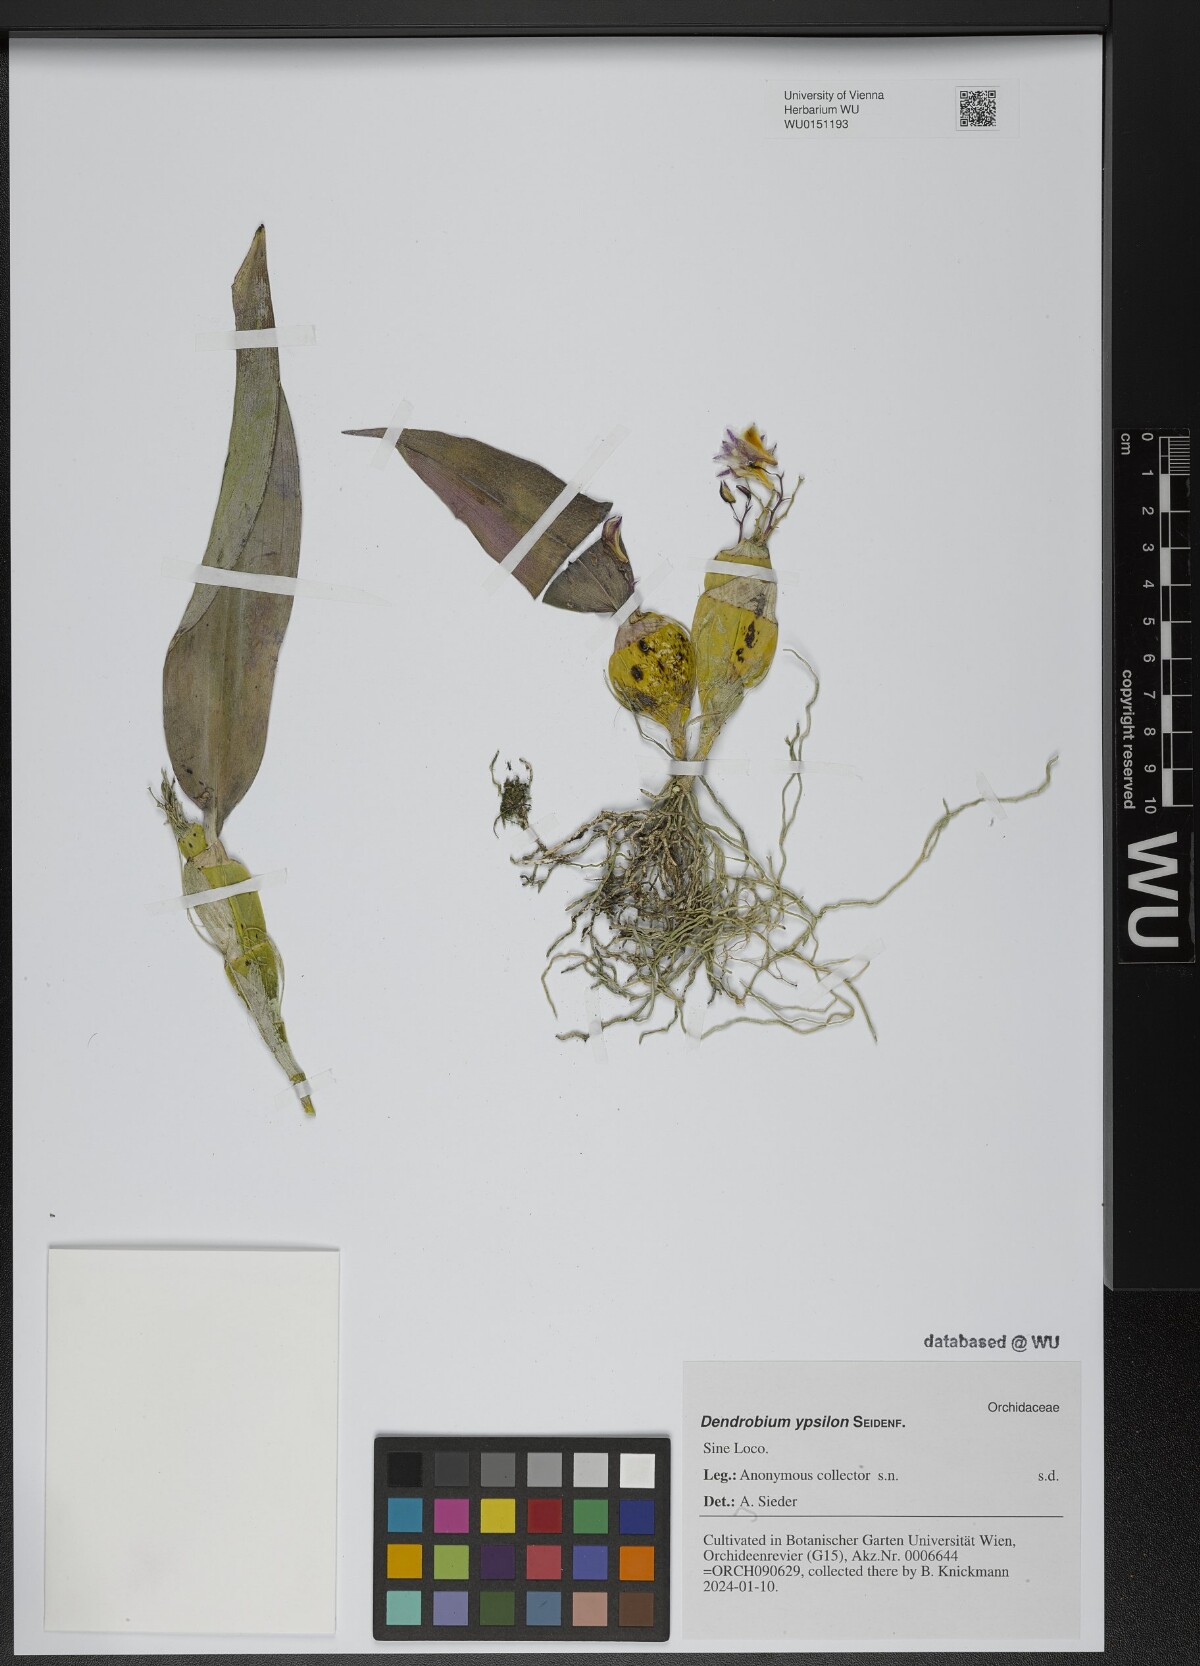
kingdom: Plantae
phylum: Tracheophyta
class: Liliopsida
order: Asparagales
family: Orchidaceae
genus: Dendrobium
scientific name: Dendrobium ypsilon
